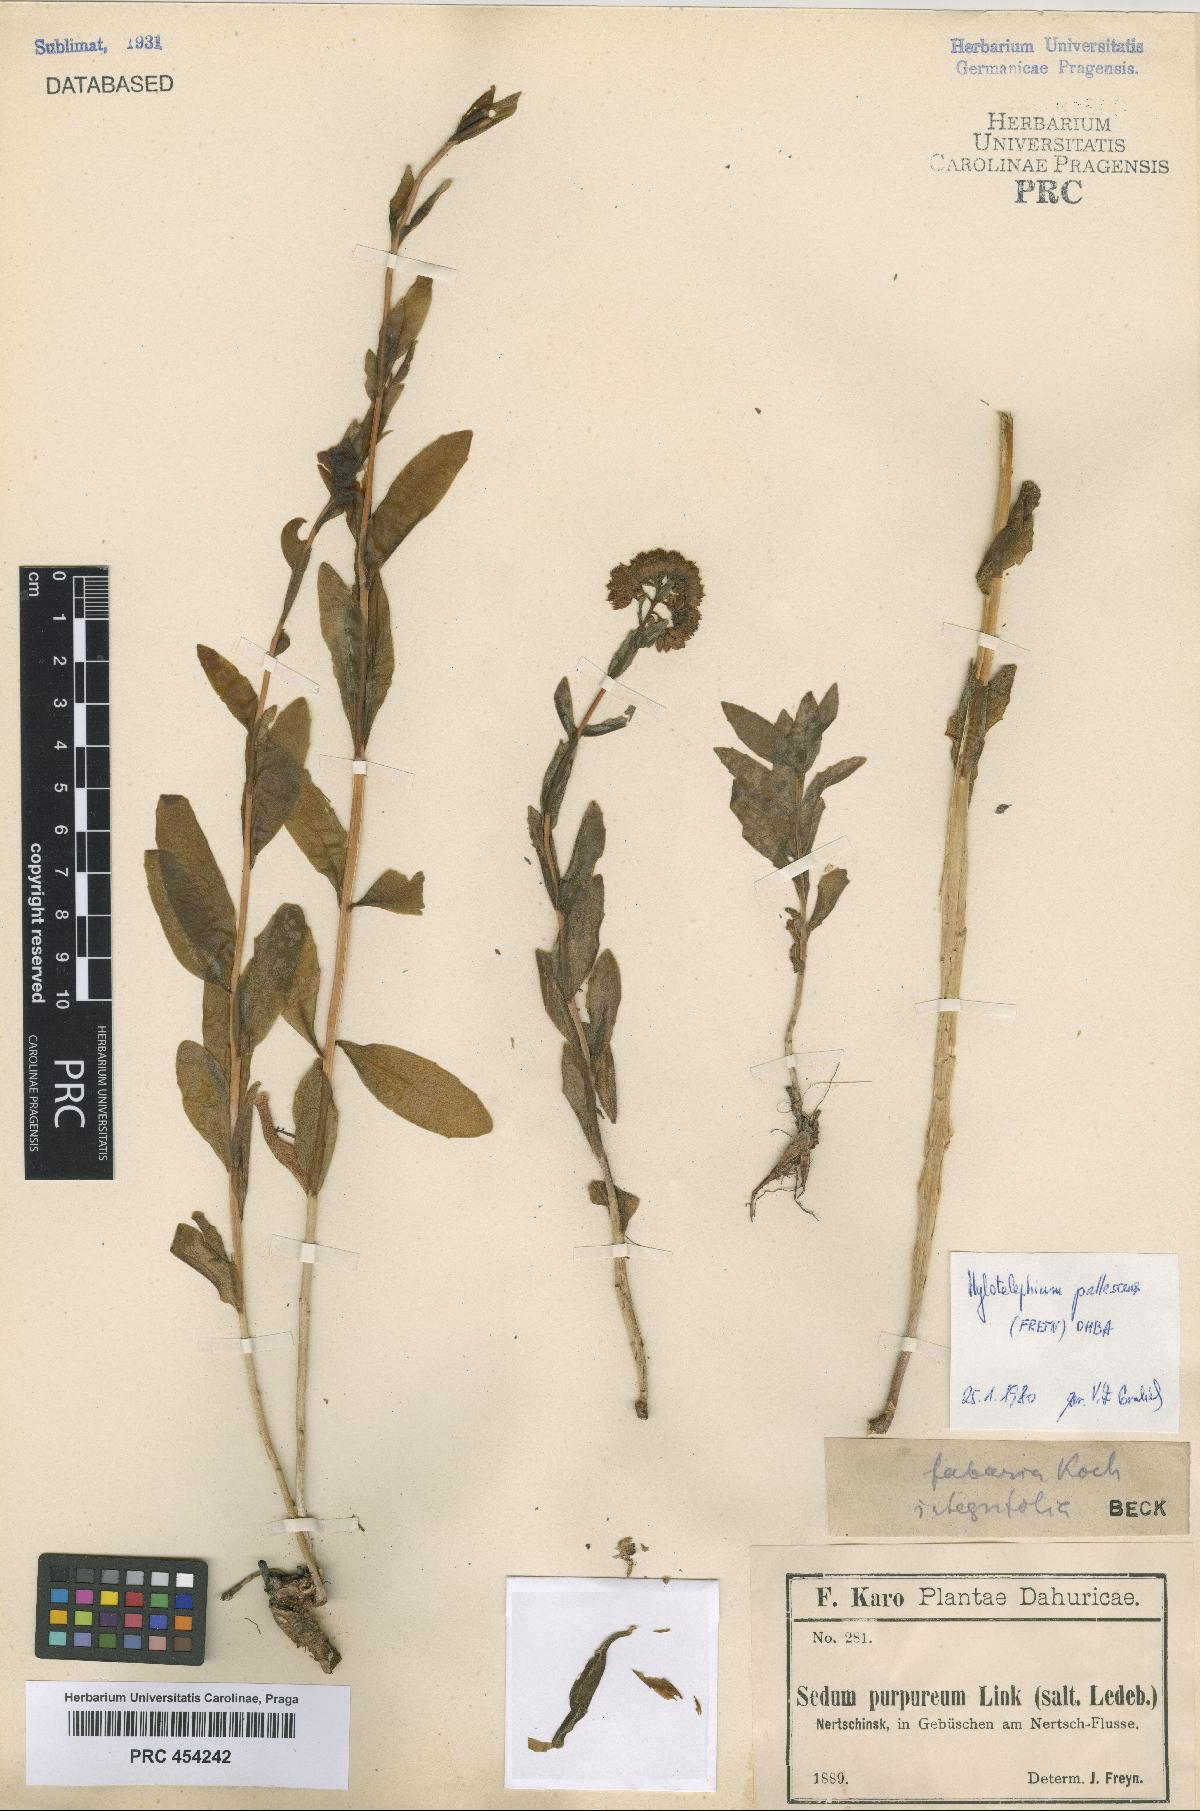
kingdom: Plantae
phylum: Tracheophyta
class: Magnoliopsida
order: Saxifragales
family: Crassulaceae
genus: Hylotelephium
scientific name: Hylotelephium pallescens
